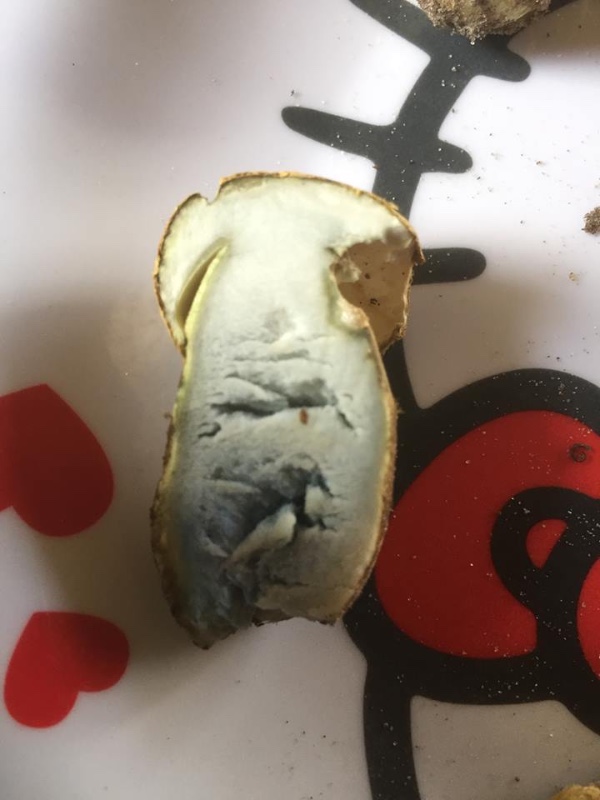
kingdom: Fungi
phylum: Basidiomycota
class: Agaricomycetes
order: Boletales
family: Gyroporaceae
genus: Gyroporus
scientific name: Gyroporus cyanescens
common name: blånende kammerrørhat
